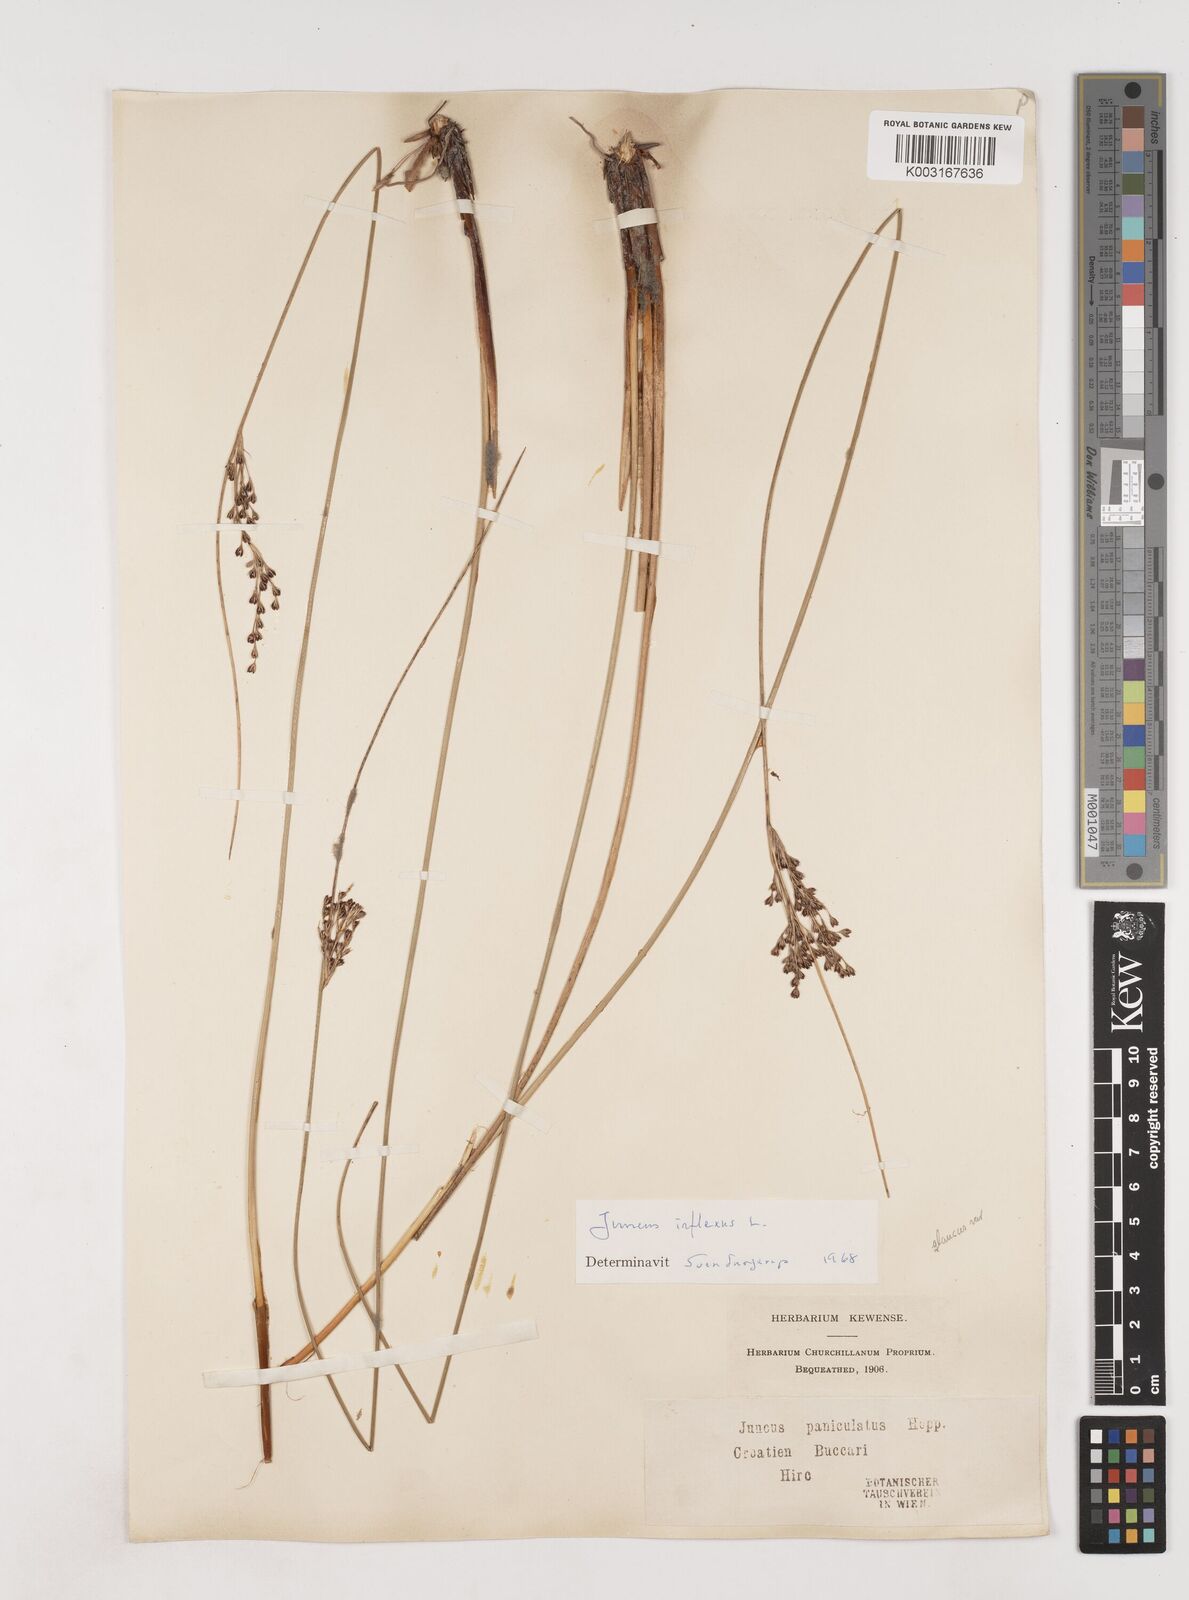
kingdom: Plantae
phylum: Tracheophyta
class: Liliopsida
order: Poales
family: Juncaceae
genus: Juncus
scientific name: Juncus inflexus
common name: Hard rush
